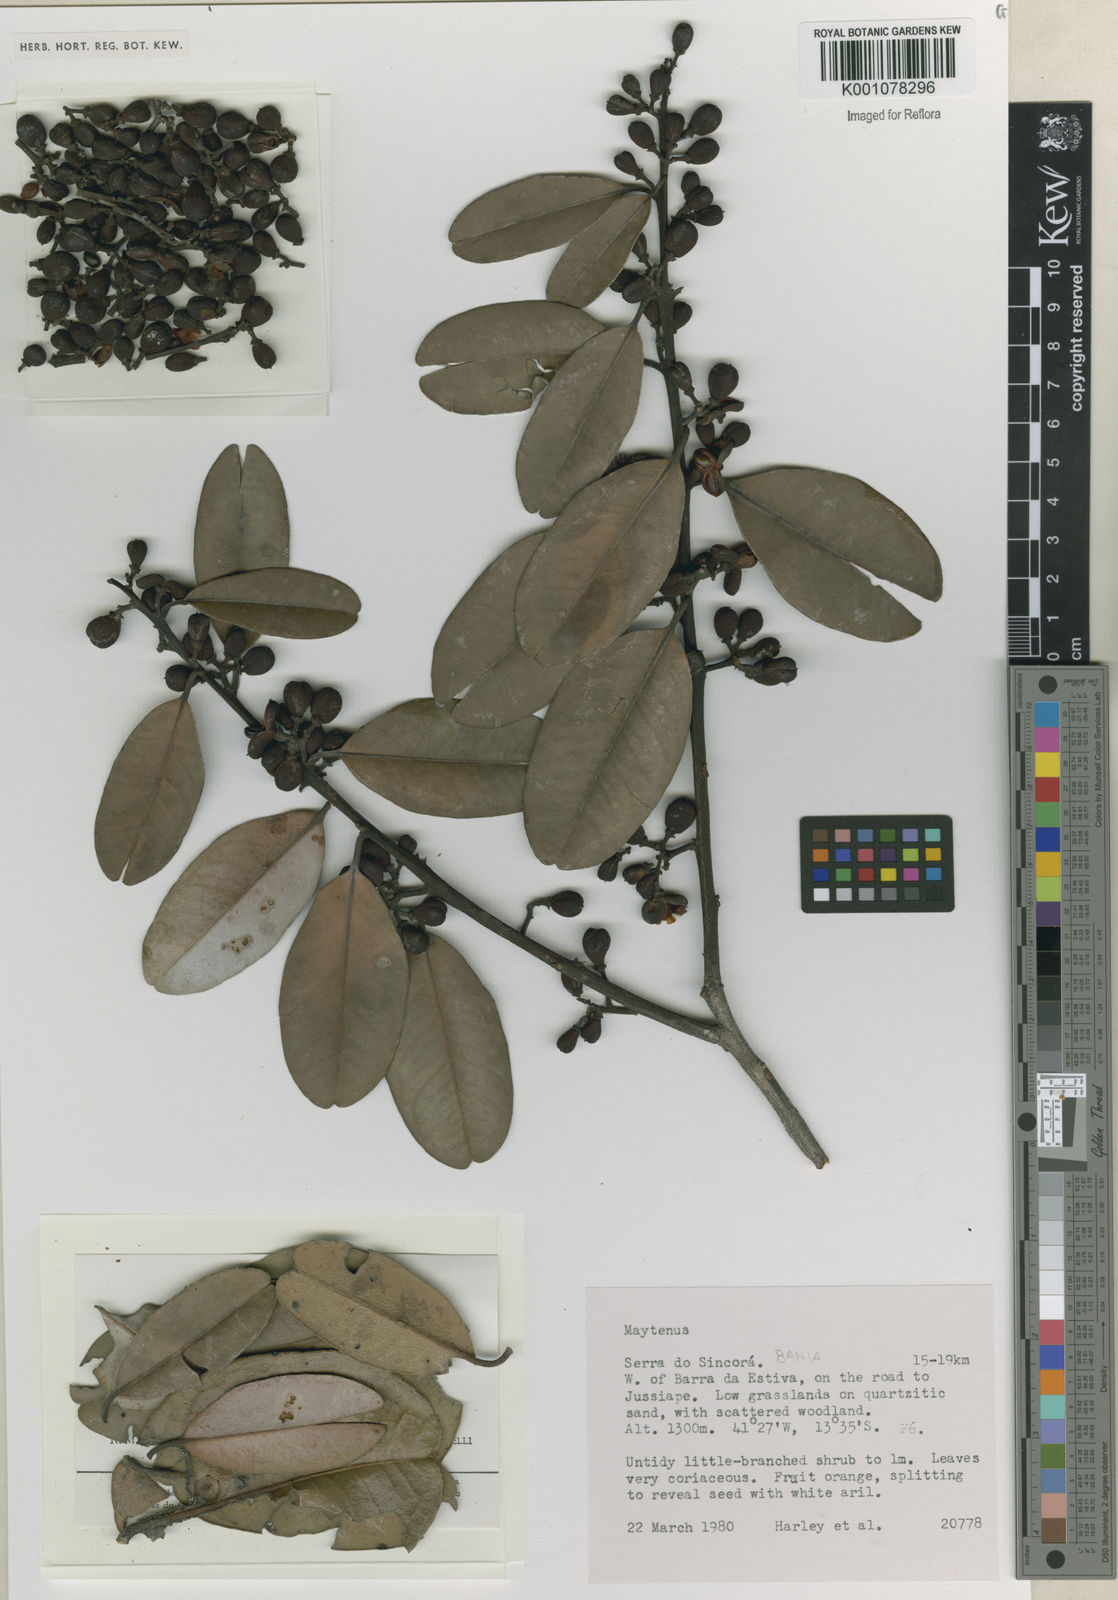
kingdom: Plantae
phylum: Tracheophyta
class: Magnoliopsida
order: Celastrales
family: Celastraceae
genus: Maytenus
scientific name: Maytenus
